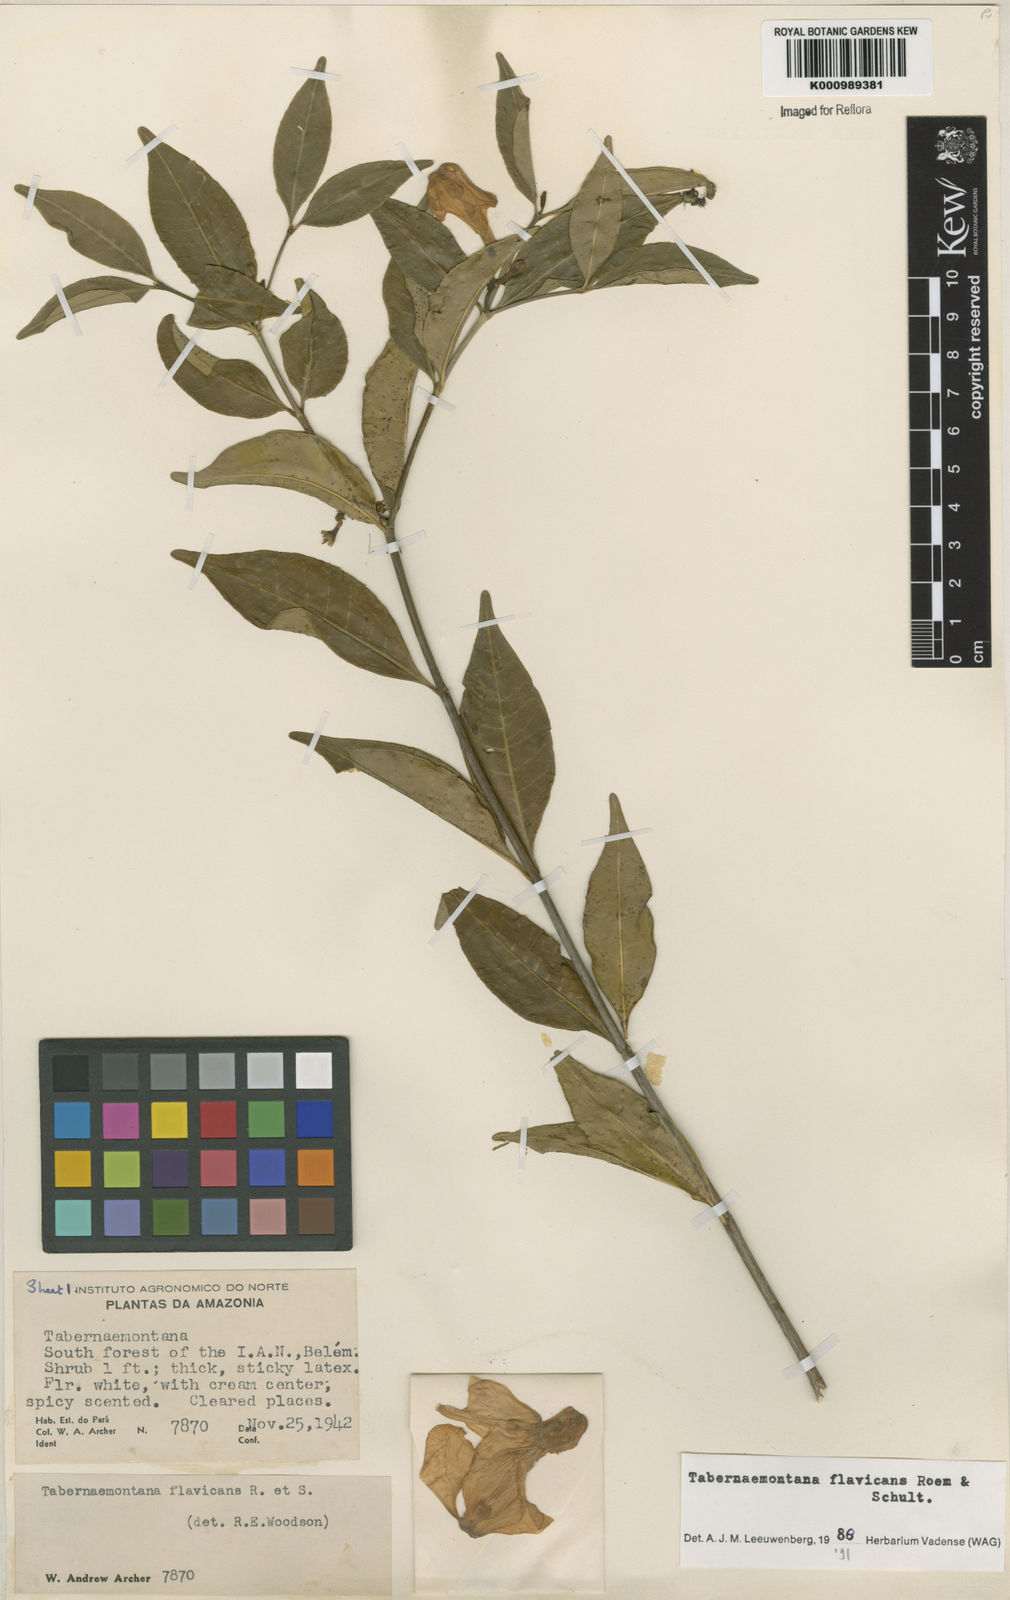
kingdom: Plantae
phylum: Tracheophyta
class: Magnoliopsida
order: Gentianales
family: Apocynaceae
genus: Tabernaemontana
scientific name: Tabernaemontana flavicans
